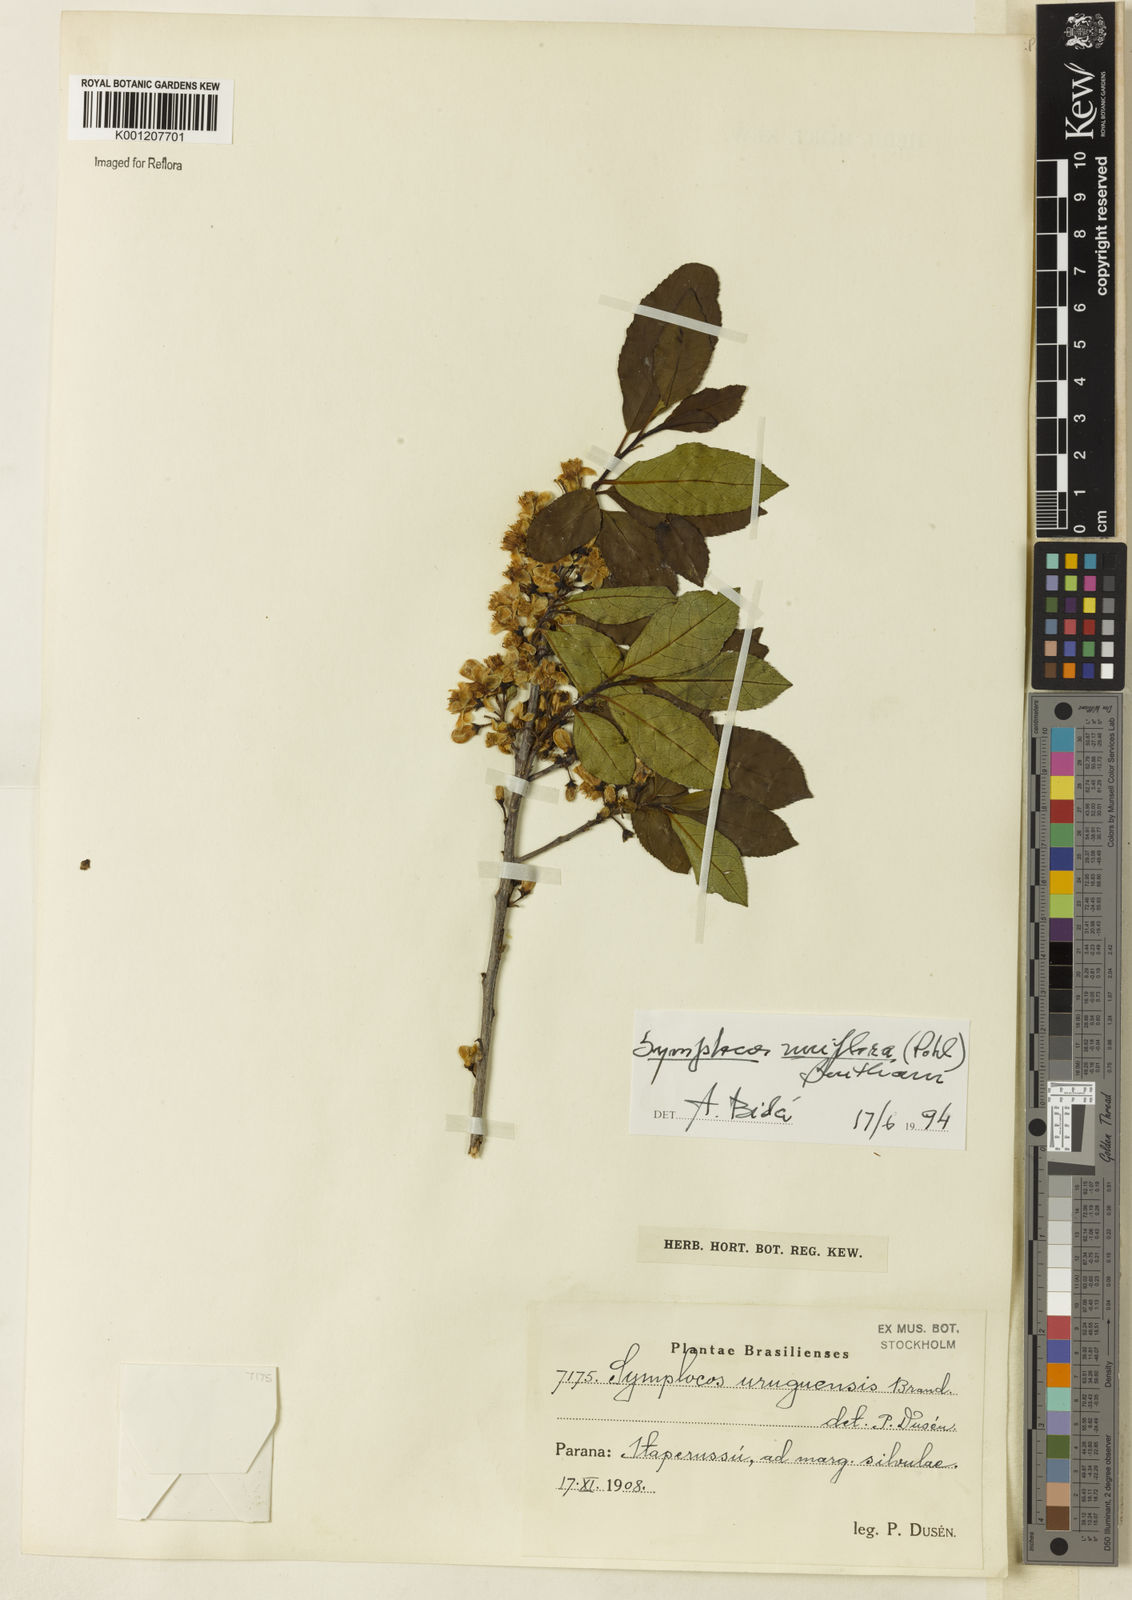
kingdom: Plantae
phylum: Tracheophyta
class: Magnoliopsida
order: Ericales
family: Symplocaceae
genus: Symplocos
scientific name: Symplocos uniflora
